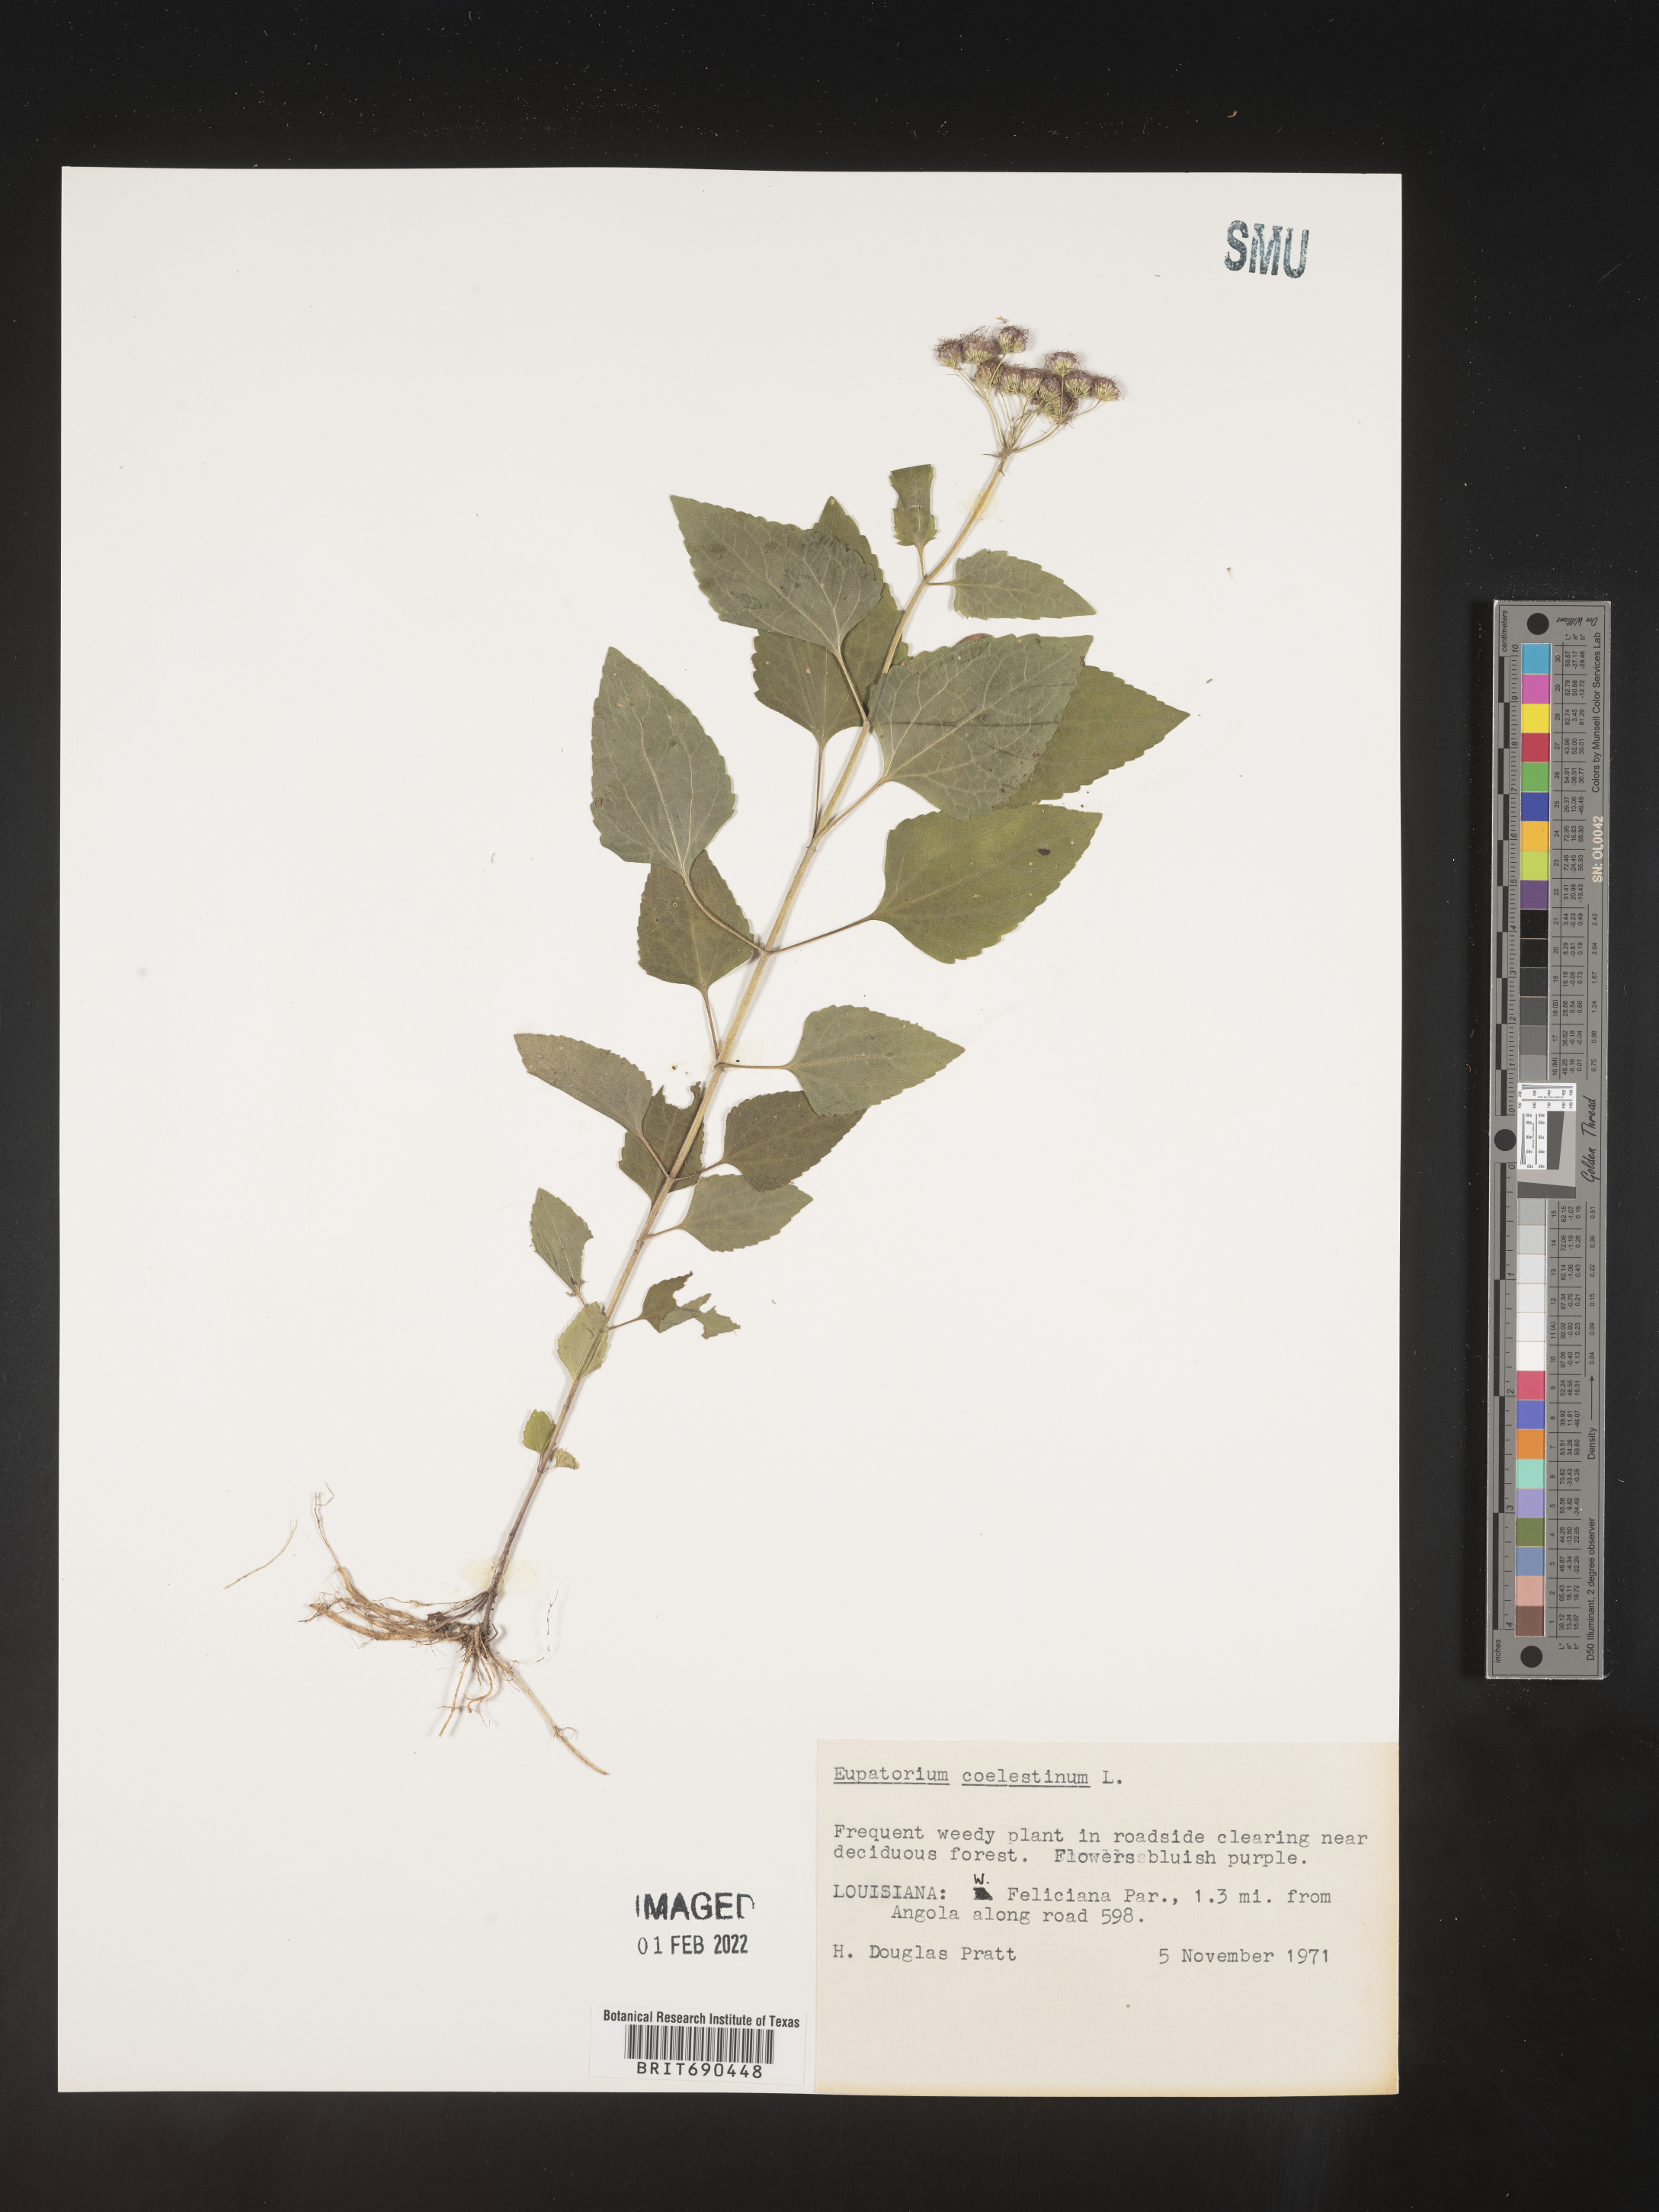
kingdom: Plantae
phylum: Tracheophyta
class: Magnoliopsida
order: Asterales
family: Asteraceae
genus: Conoclinium
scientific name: Conoclinium coelestinum
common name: Blue mistflower
